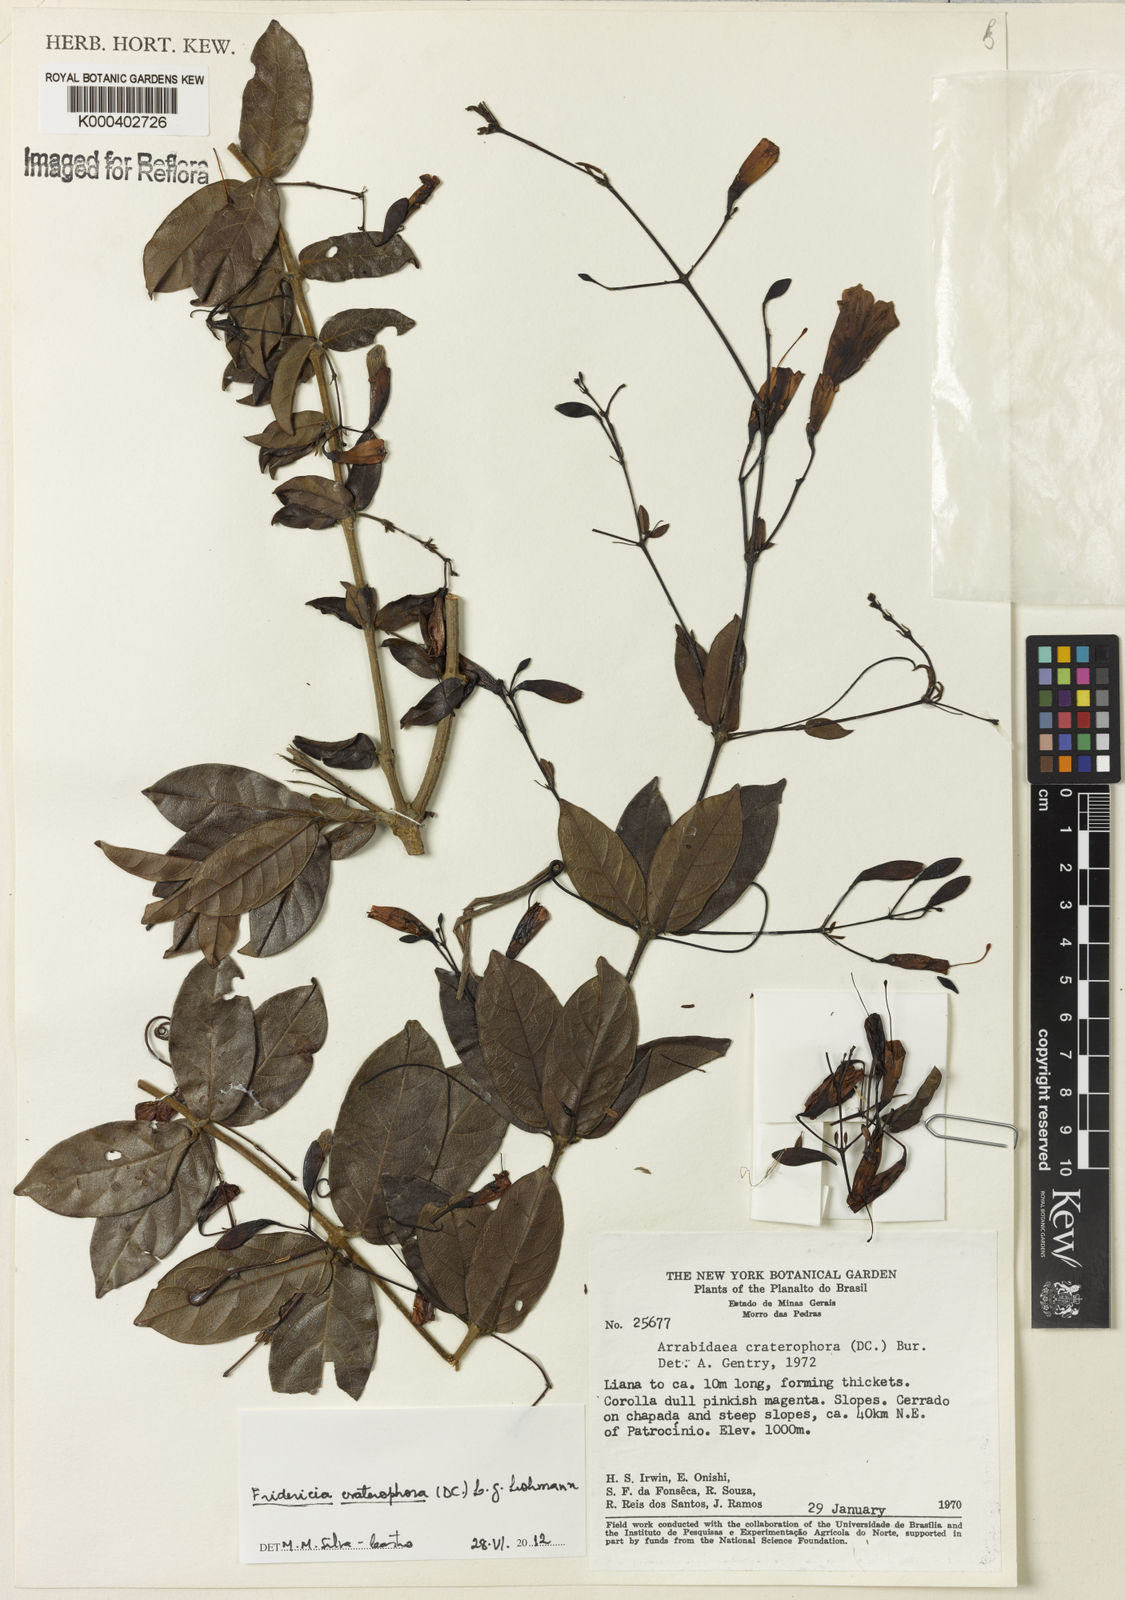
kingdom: Plantae
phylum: Tracheophyta
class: Magnoliopsida
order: Lamiales
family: Bignoniaceae
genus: Fridericia
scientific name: Fridericia craterophora
